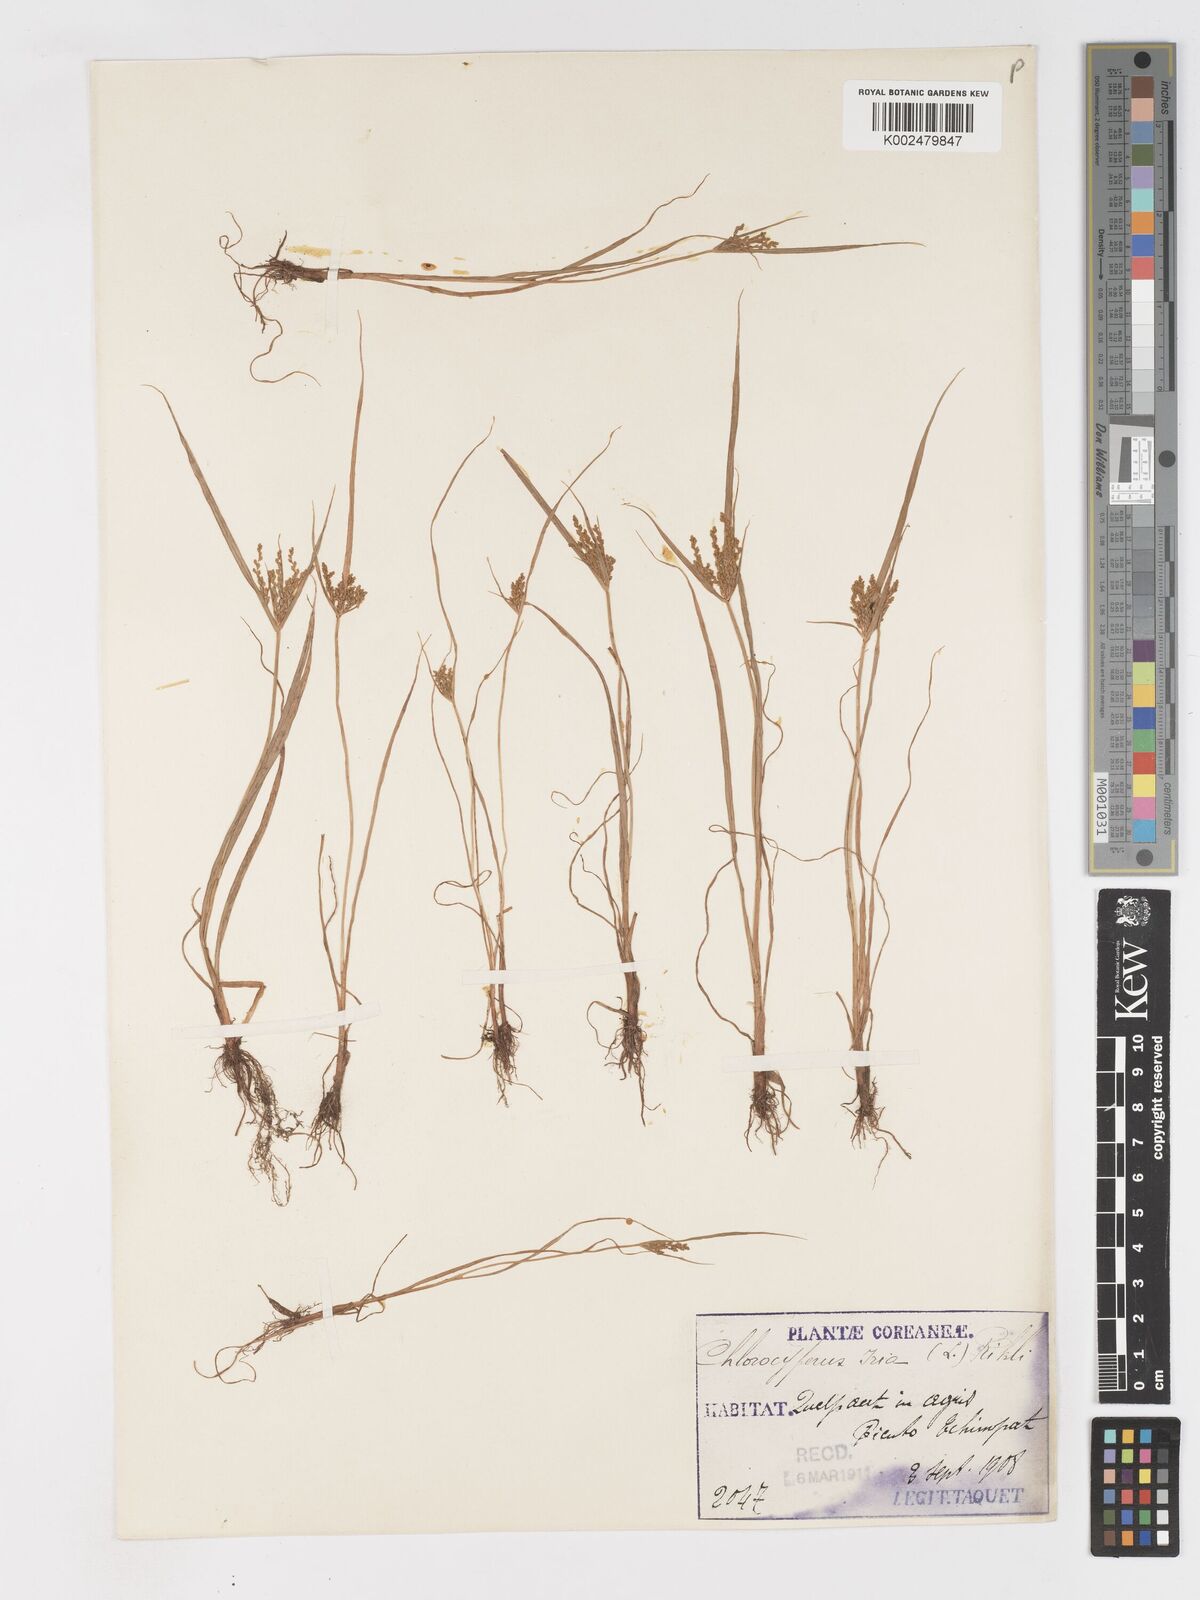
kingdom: Plantae
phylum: Tracheophyta
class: Liliopsida
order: Poales
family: Cyperaceae
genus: Cyperus
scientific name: Cyperus iria
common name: Ricefield flatsedge
